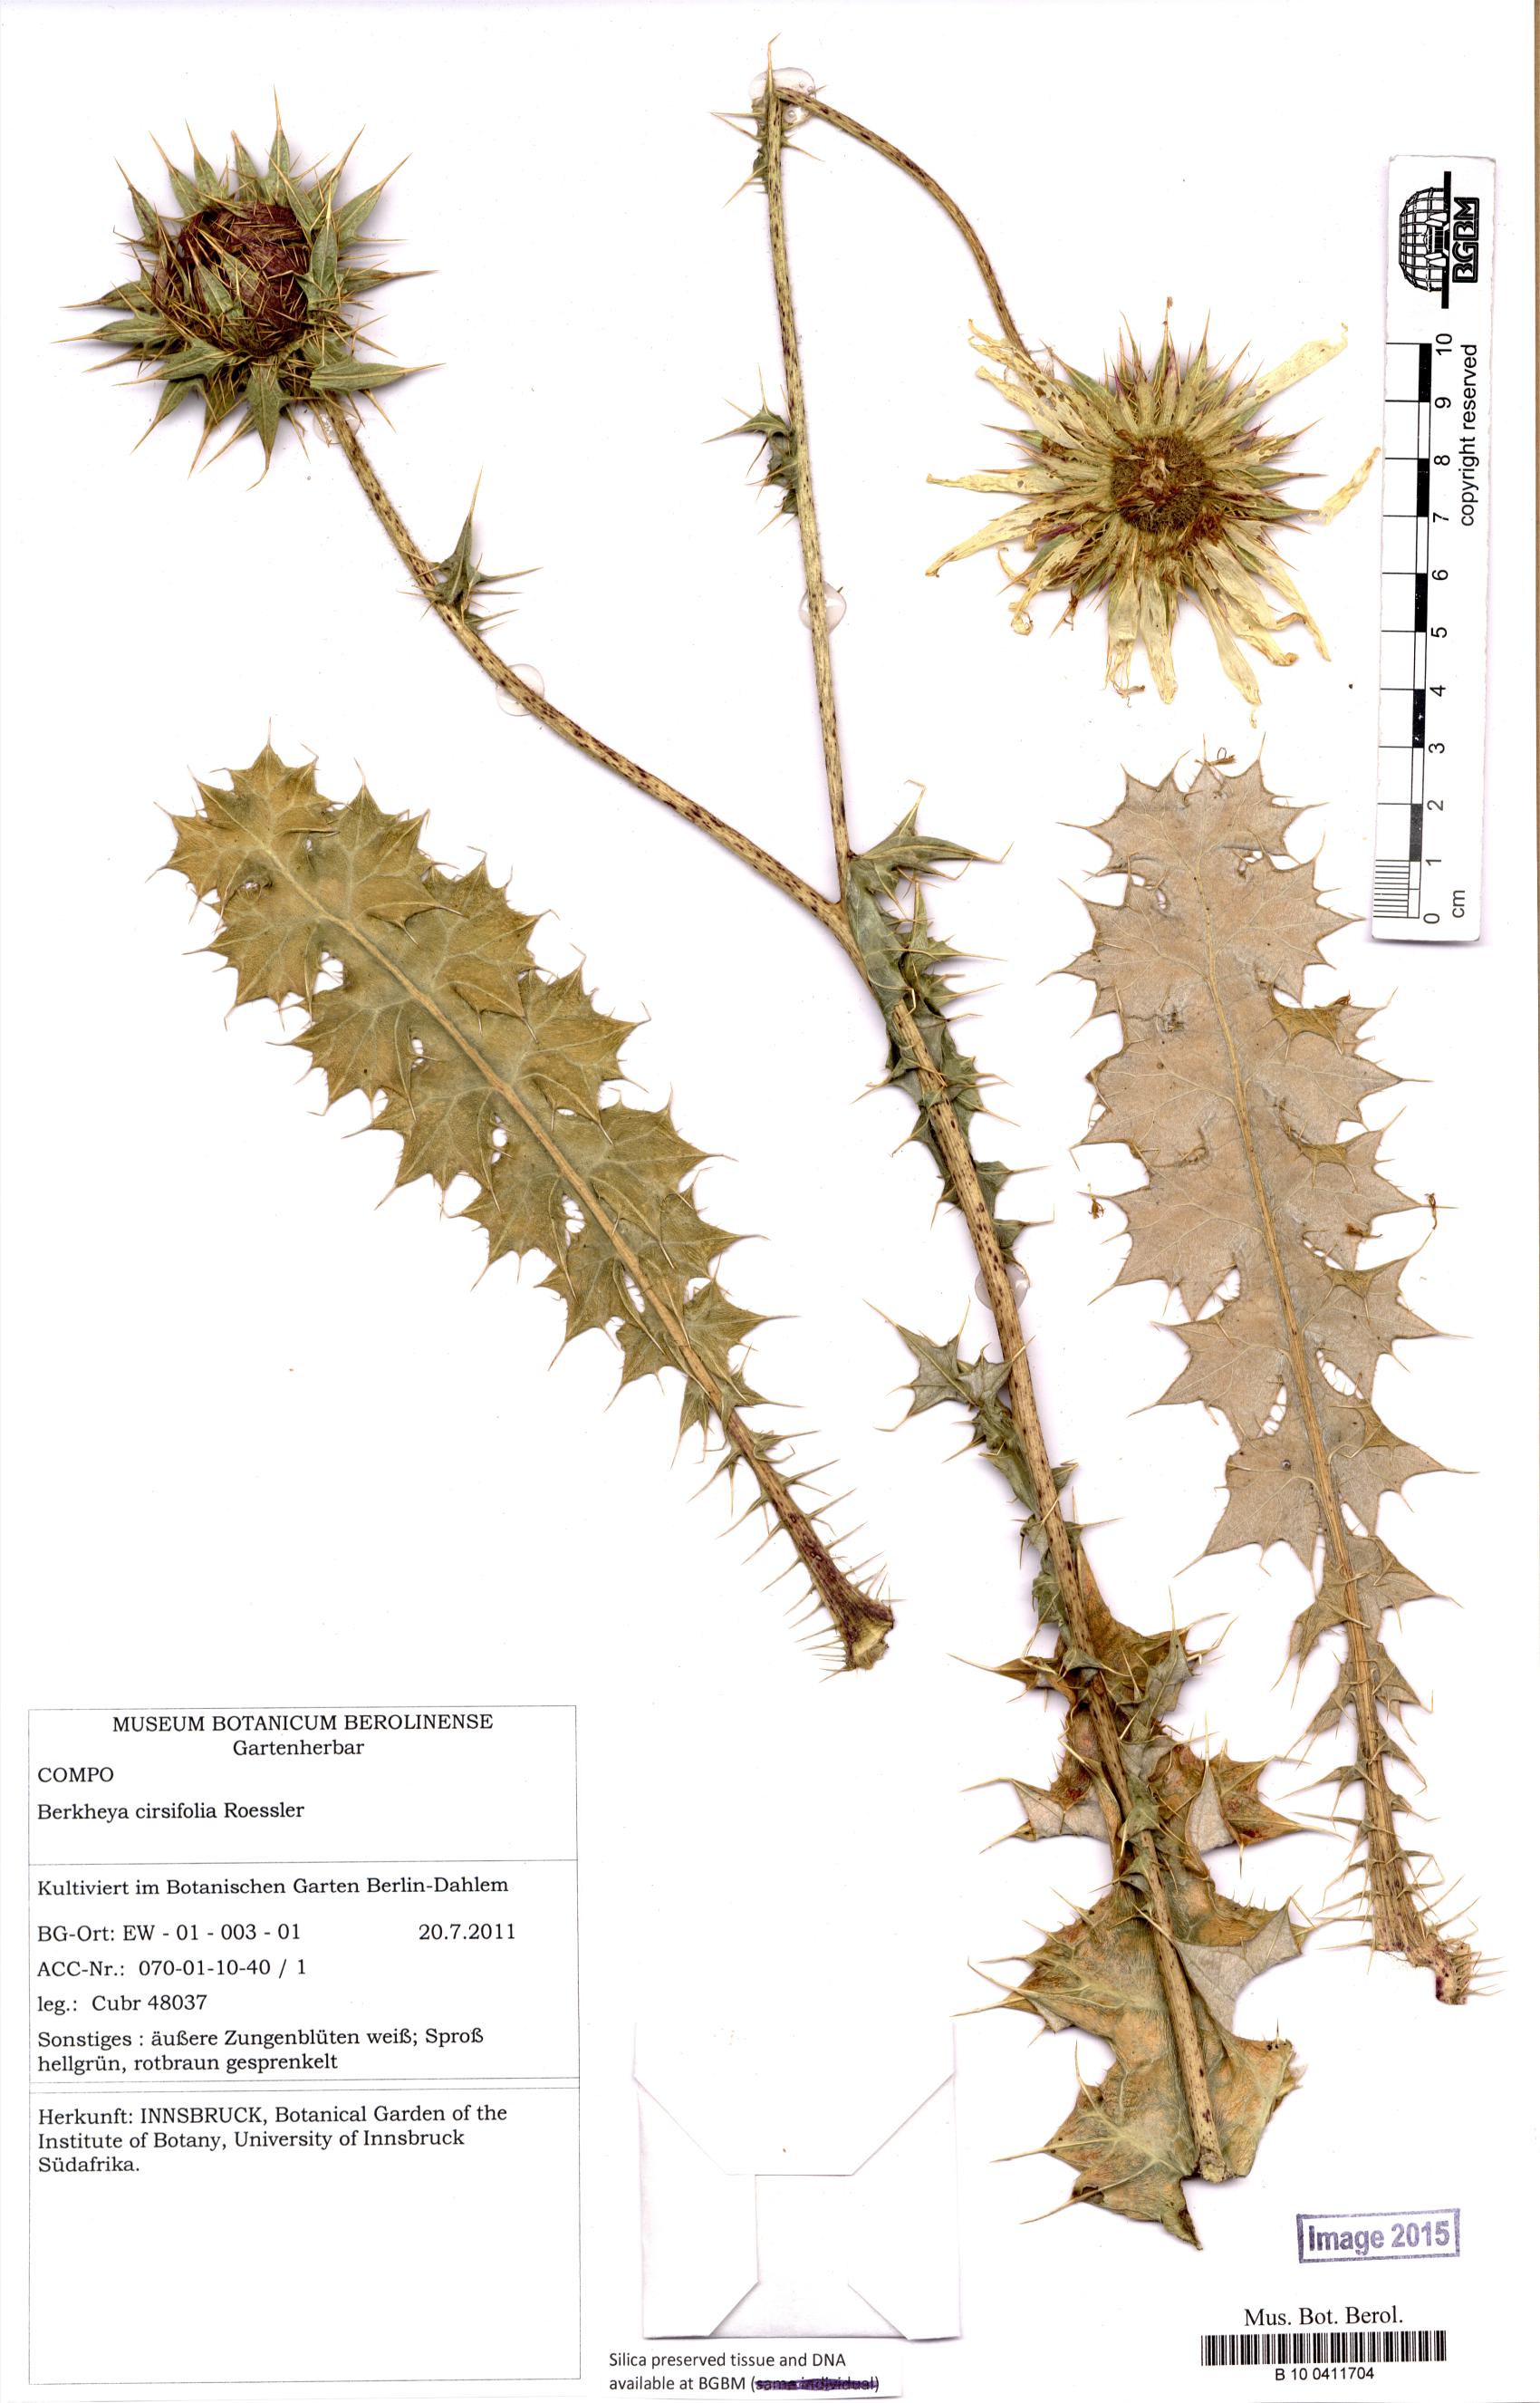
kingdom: Plantae
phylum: Tracheophyta
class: Magnoliopsida
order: Asterales
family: Asteraceae
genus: Berkheya
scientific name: Berkheya cirsiifolia
